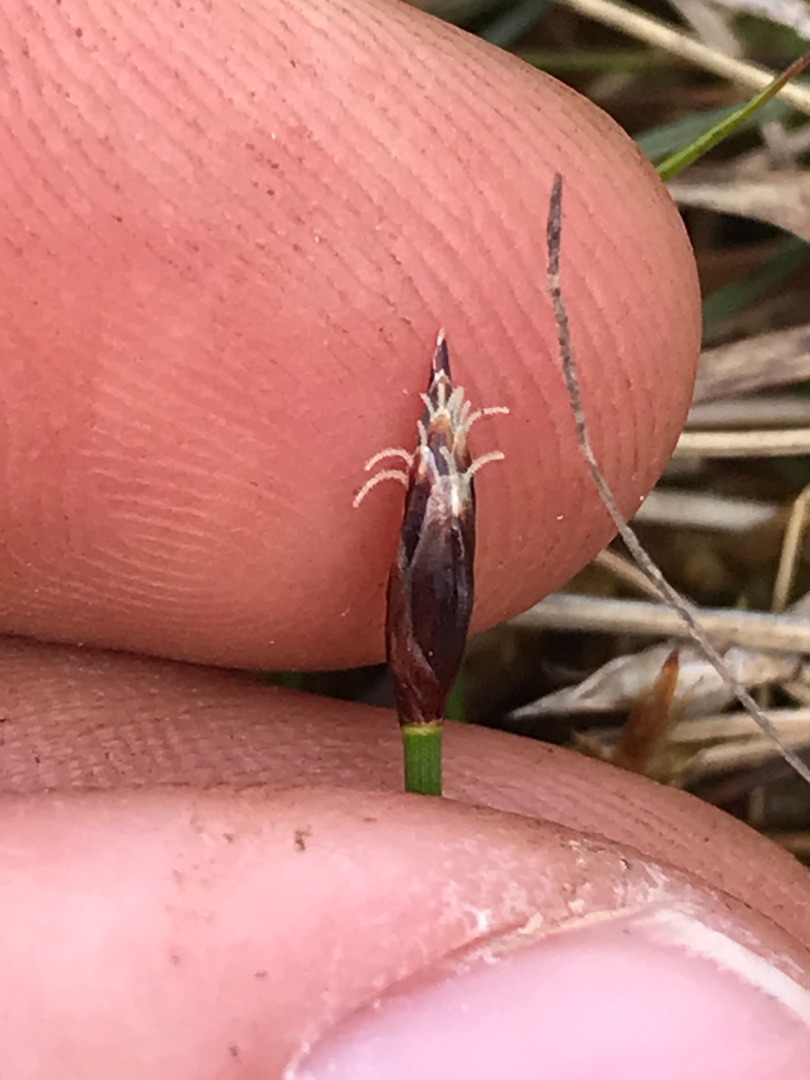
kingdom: Plantae
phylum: Tracheophyta
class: Liliopsida
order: Poales
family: Cyperaceae
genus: Eleocharis
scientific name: Eleocharis quinqueflora
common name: Fåblomstret kogleaks
